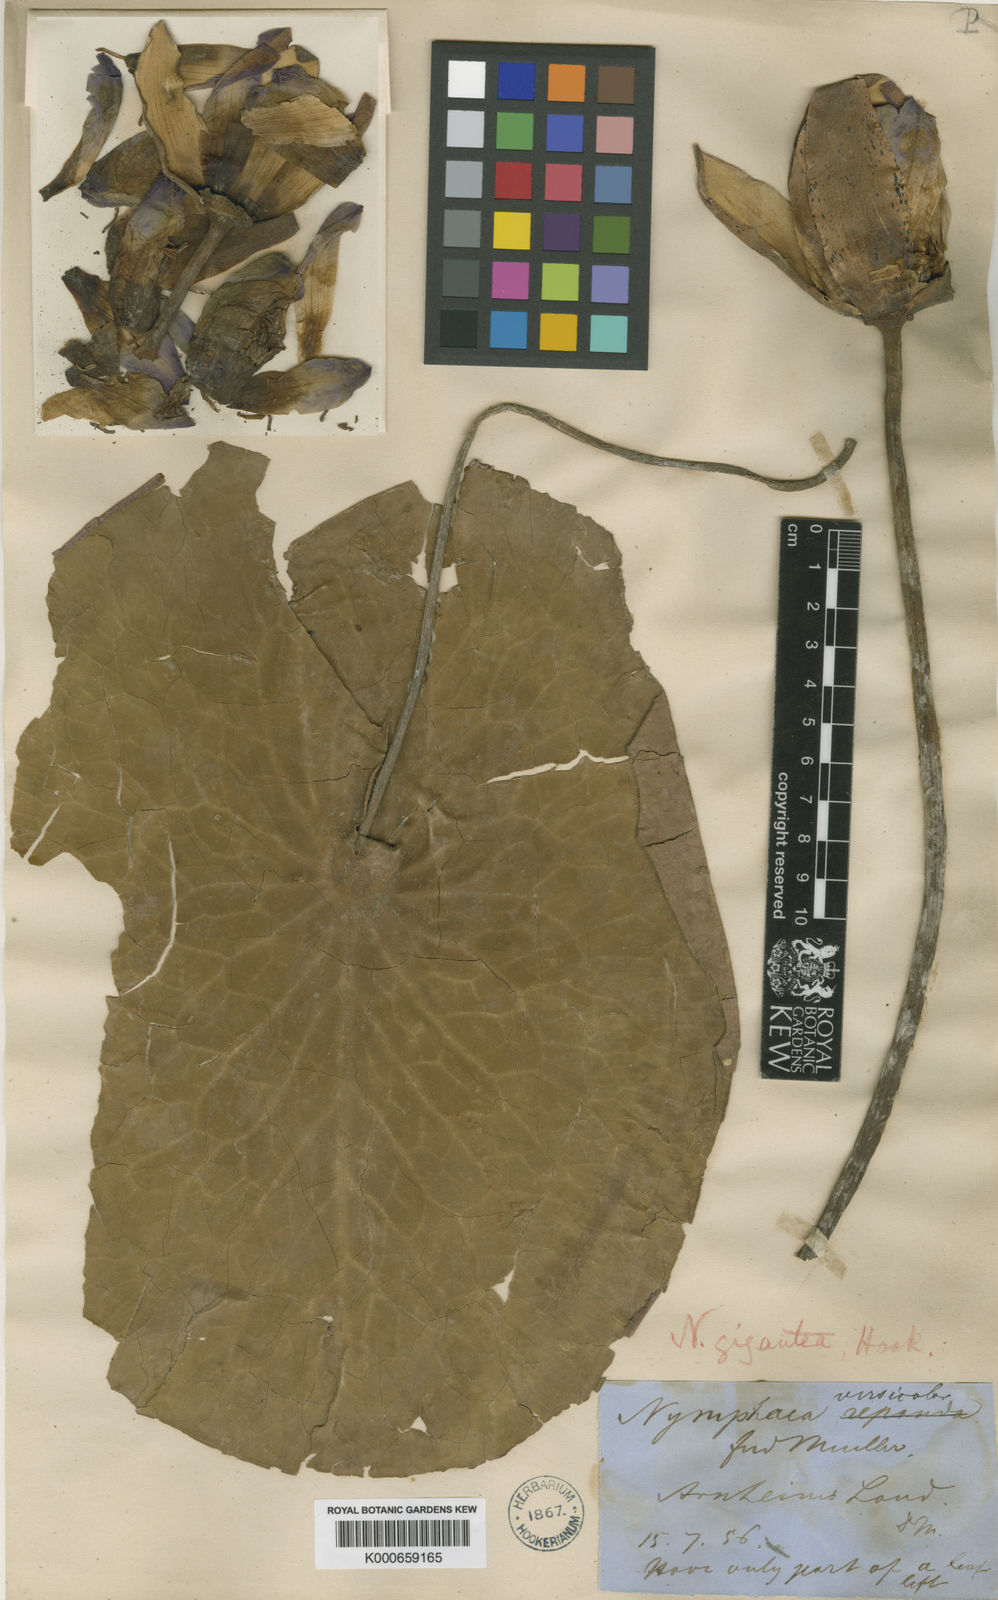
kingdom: Plantae
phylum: Tracheophyta
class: Magnoliopsida
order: Nymphaeales
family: Nymphaeaceae
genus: Nymphaea
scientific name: Nymphaea violacea
